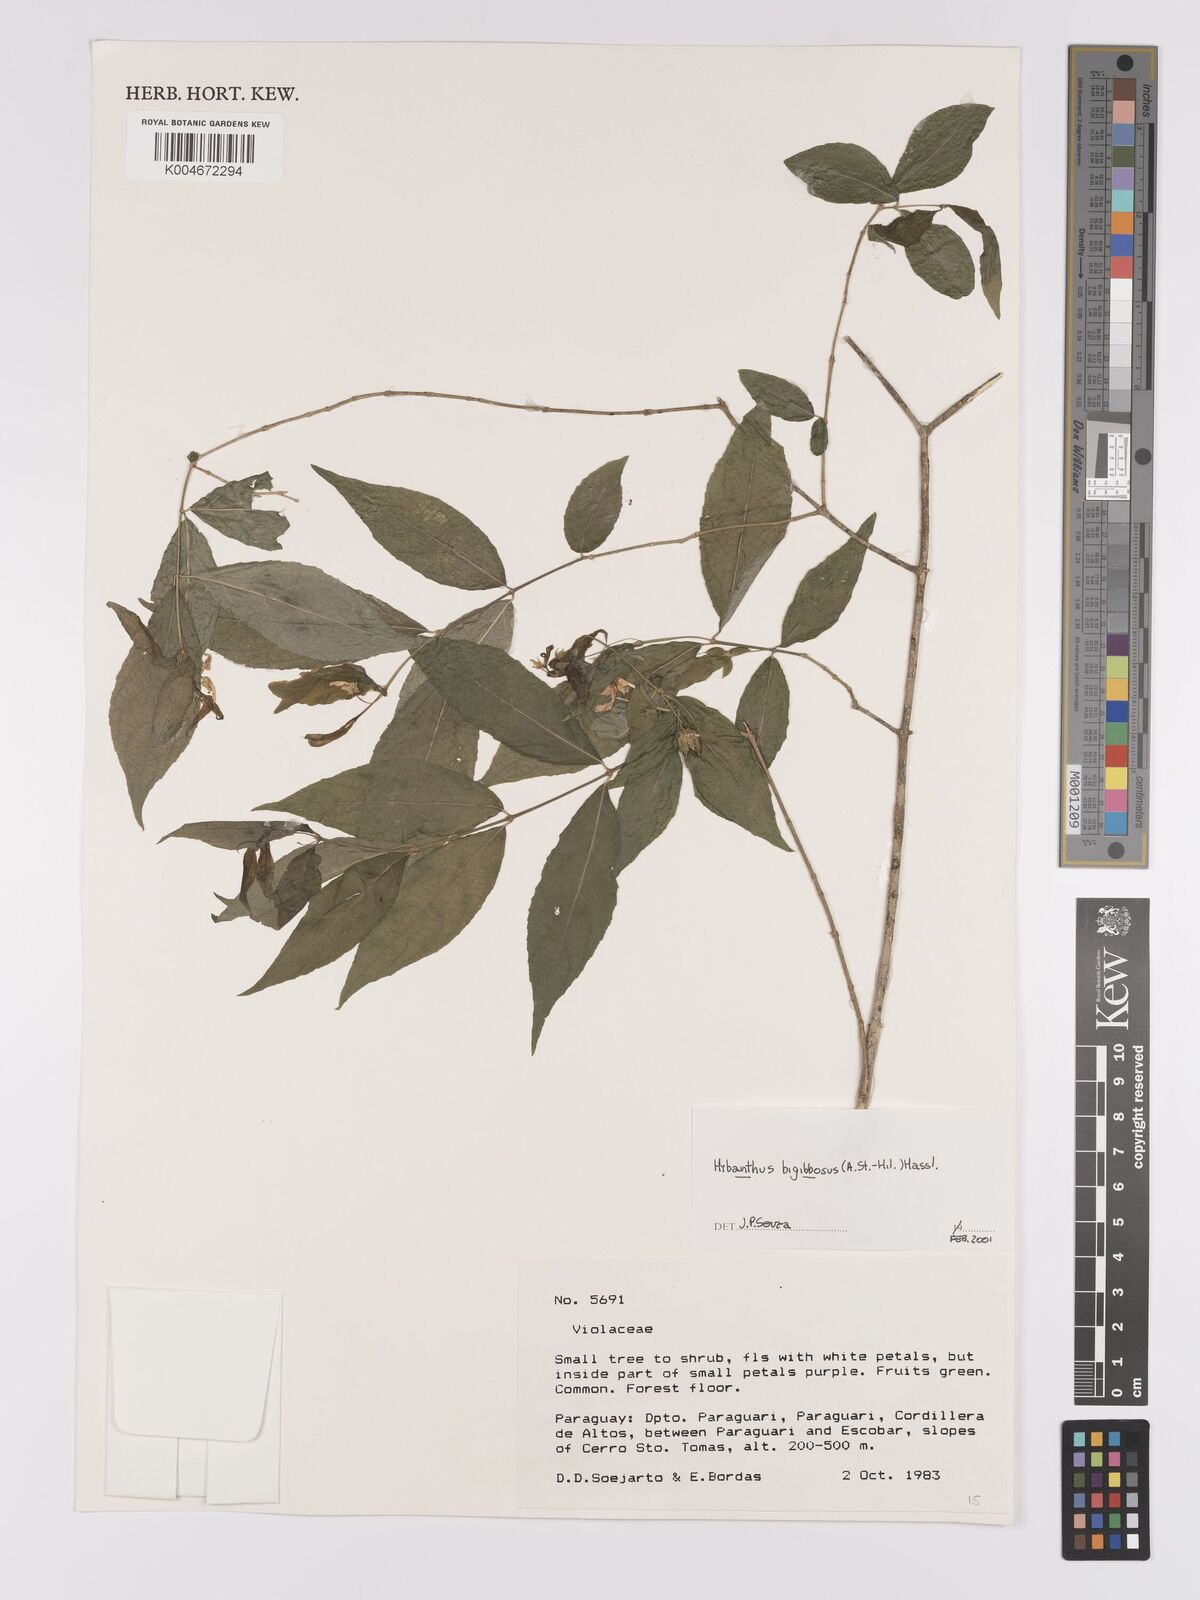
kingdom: Plantae
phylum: Tracheophyta
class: Magnoliopsida
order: Malpighiales
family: Violaceae
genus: Pombalia
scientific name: Pombalia bigibbosa
